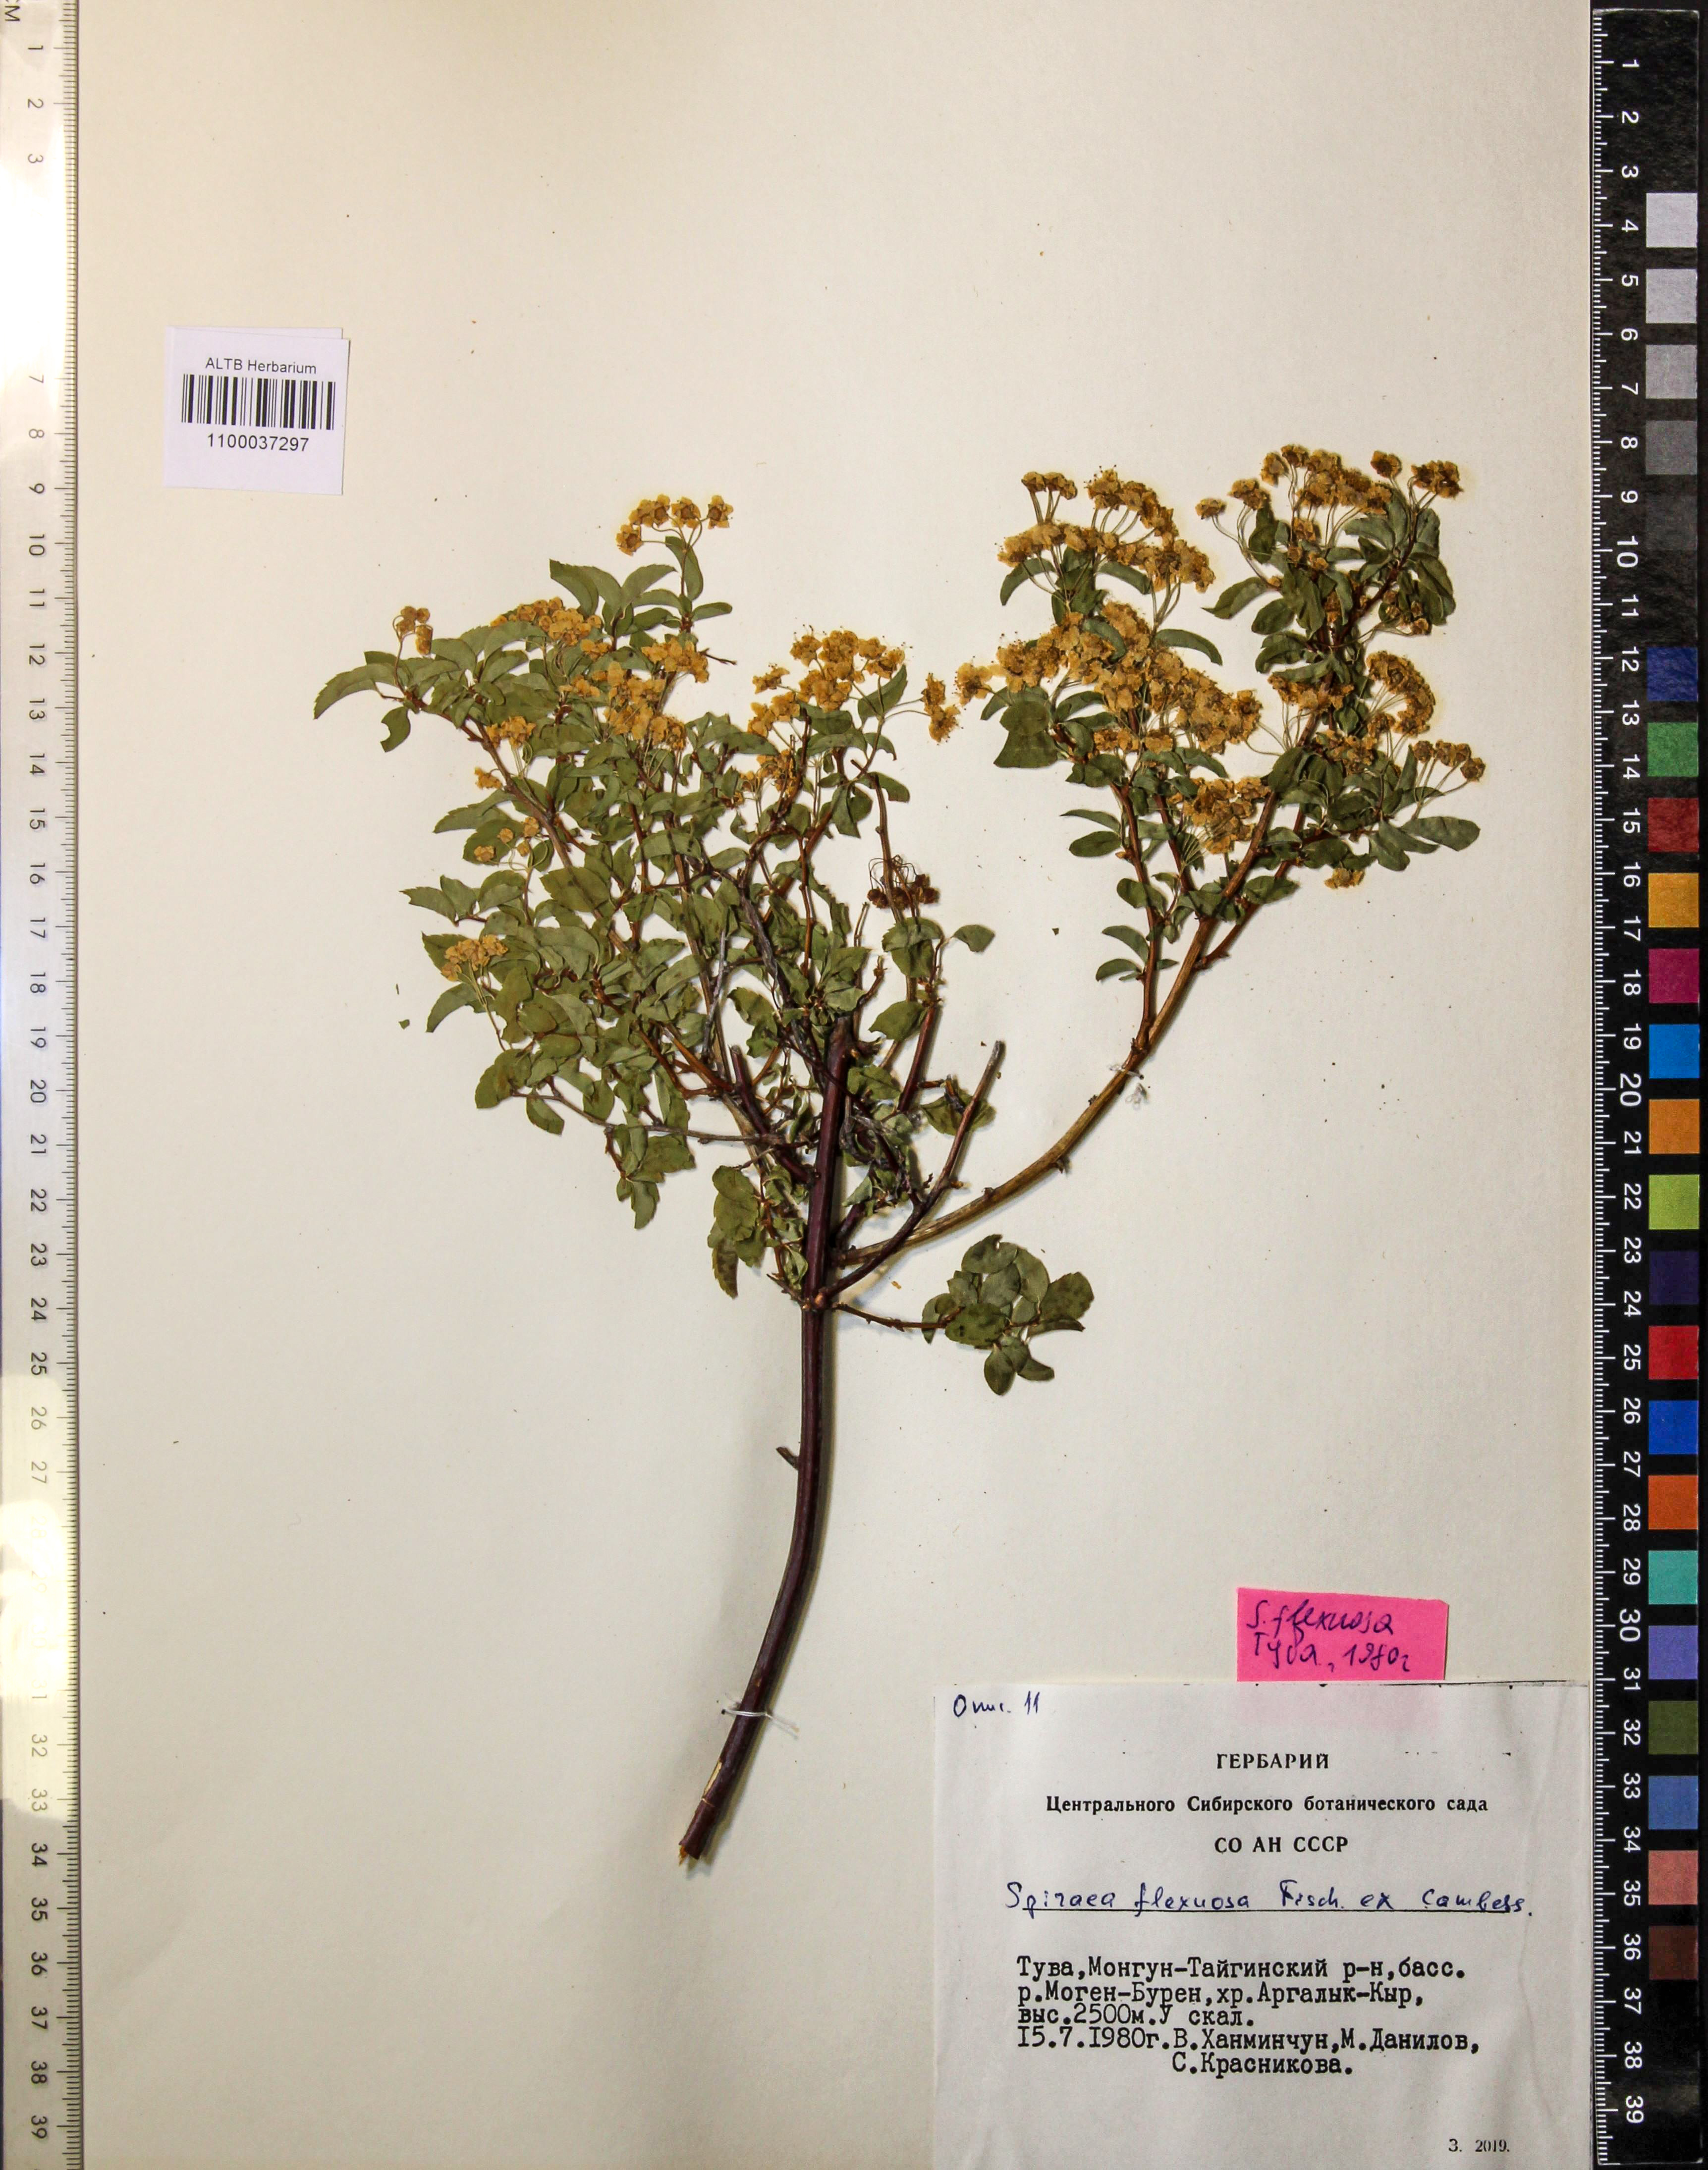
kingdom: Plantae
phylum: Tracheophyta
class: Magnoliopsida
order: Rosales
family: Rosaceae
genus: Spiraea
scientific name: Spiraea flexuosa
